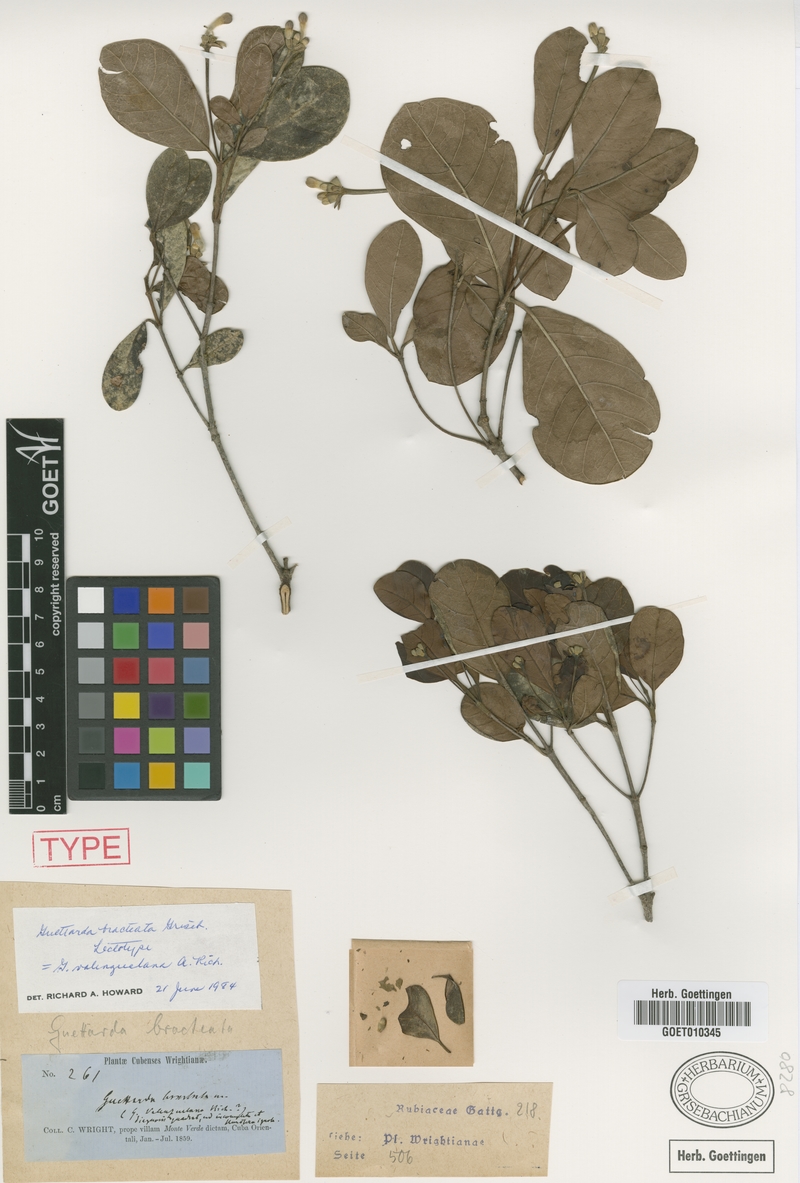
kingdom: Plantae
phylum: Tracheophyta
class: Magnoliopsida
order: Gentianales
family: Rubiaceae
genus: Guettarda
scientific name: Guettarda valenzuelana
